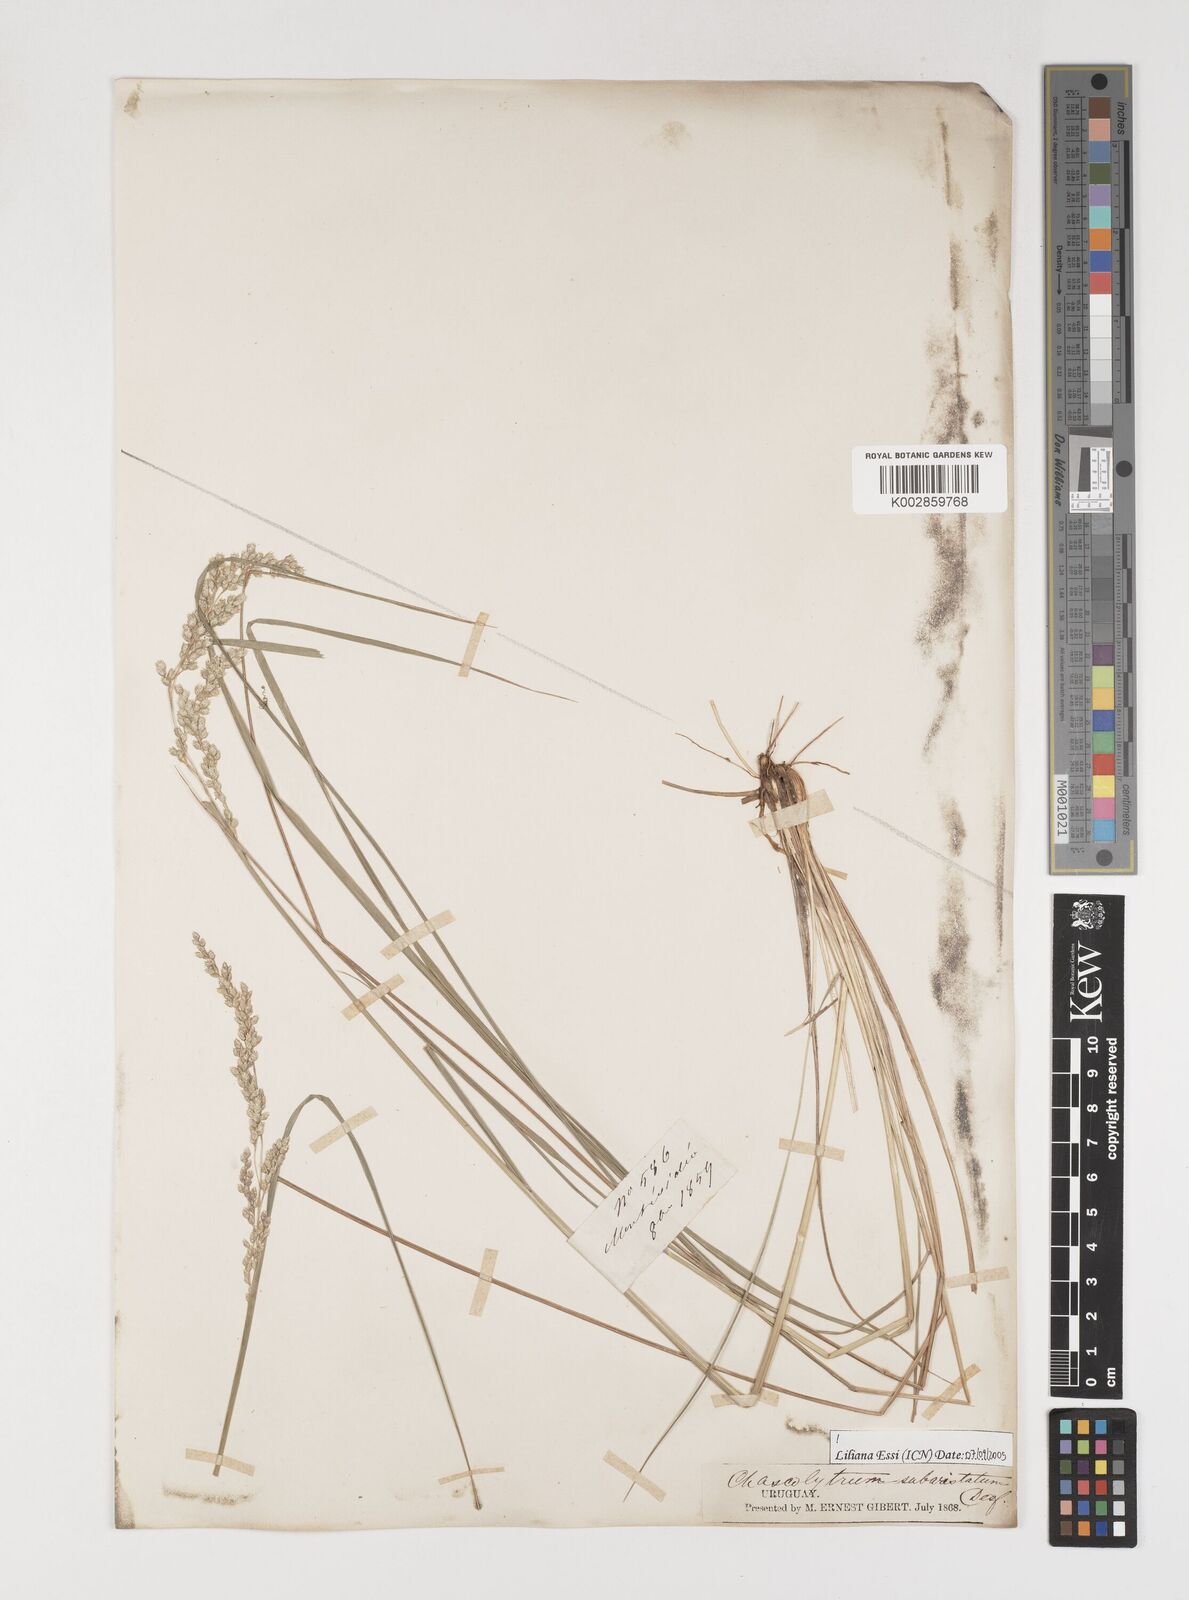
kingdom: Plantae
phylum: Tracheophyta
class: Liliopsida
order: Poales
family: Poaceae
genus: Chascolytrum
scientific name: Chascolytrum subaristatum
